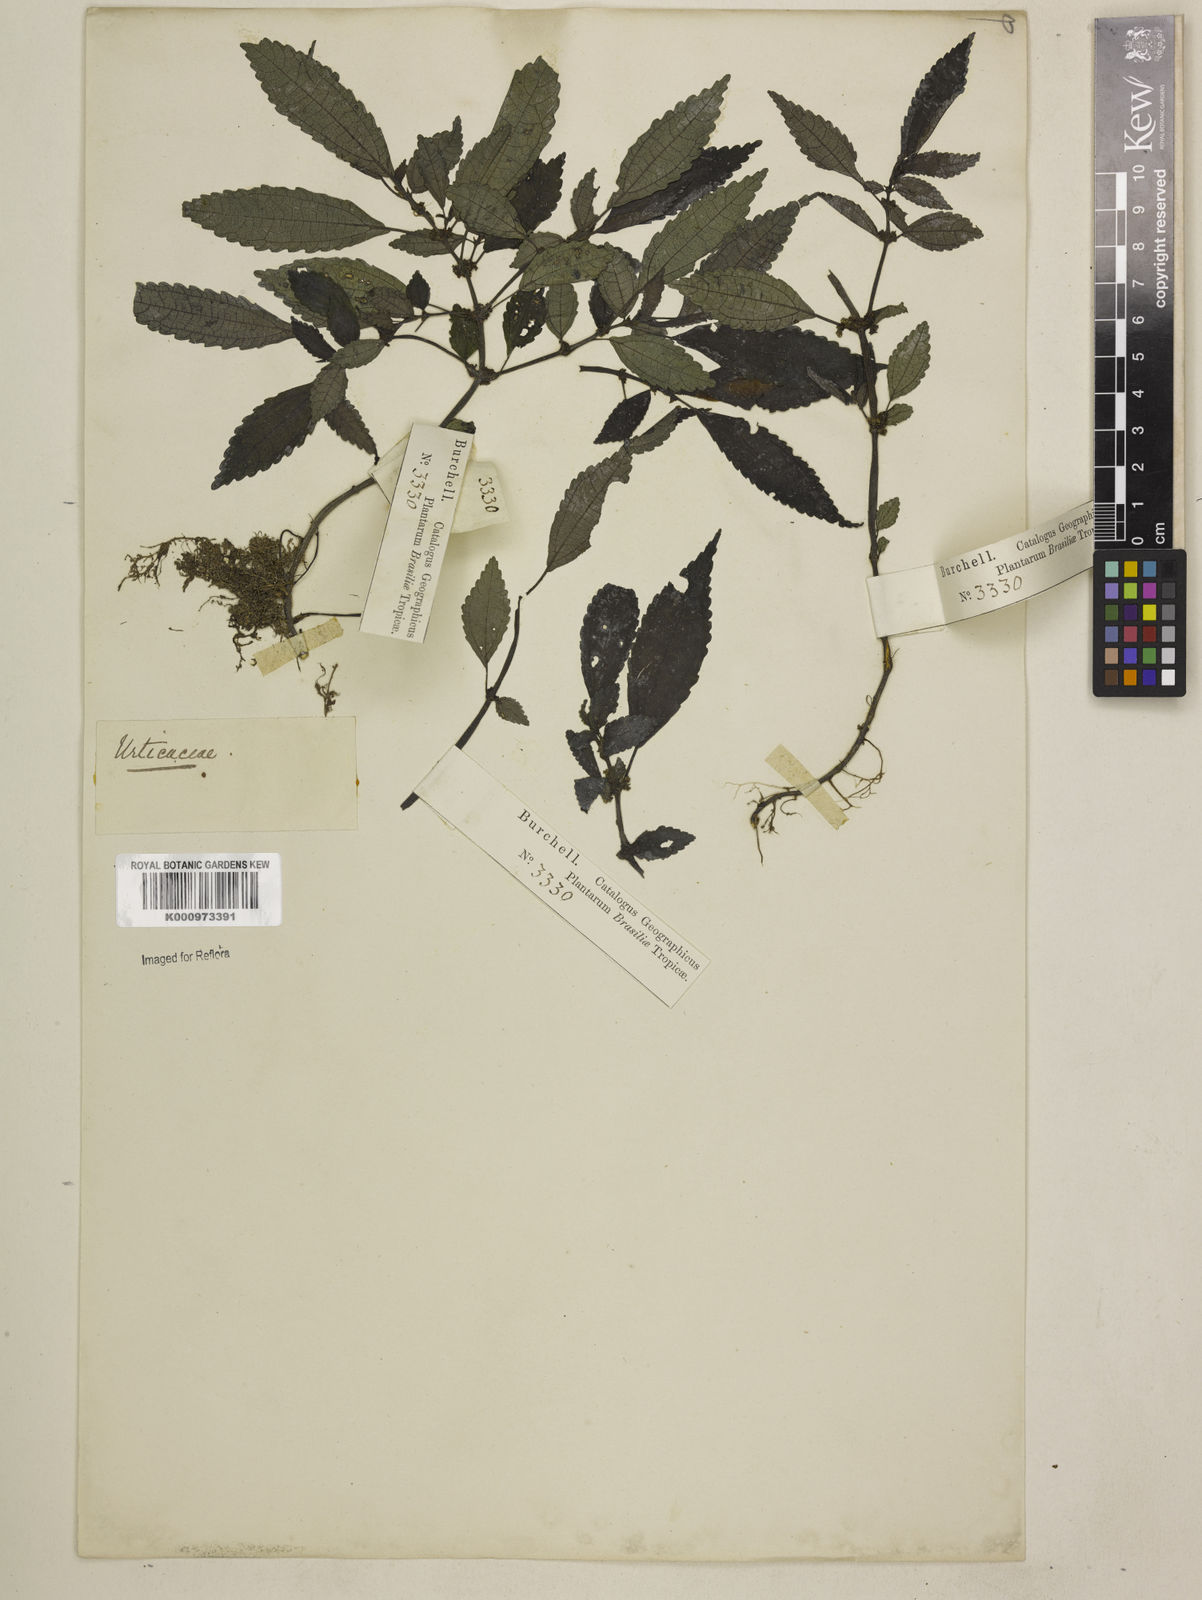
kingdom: Plantae
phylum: Tracheophyta
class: Magnoliopsida
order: Rosales
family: Urticaceae
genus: Pilea
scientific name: Pilea
